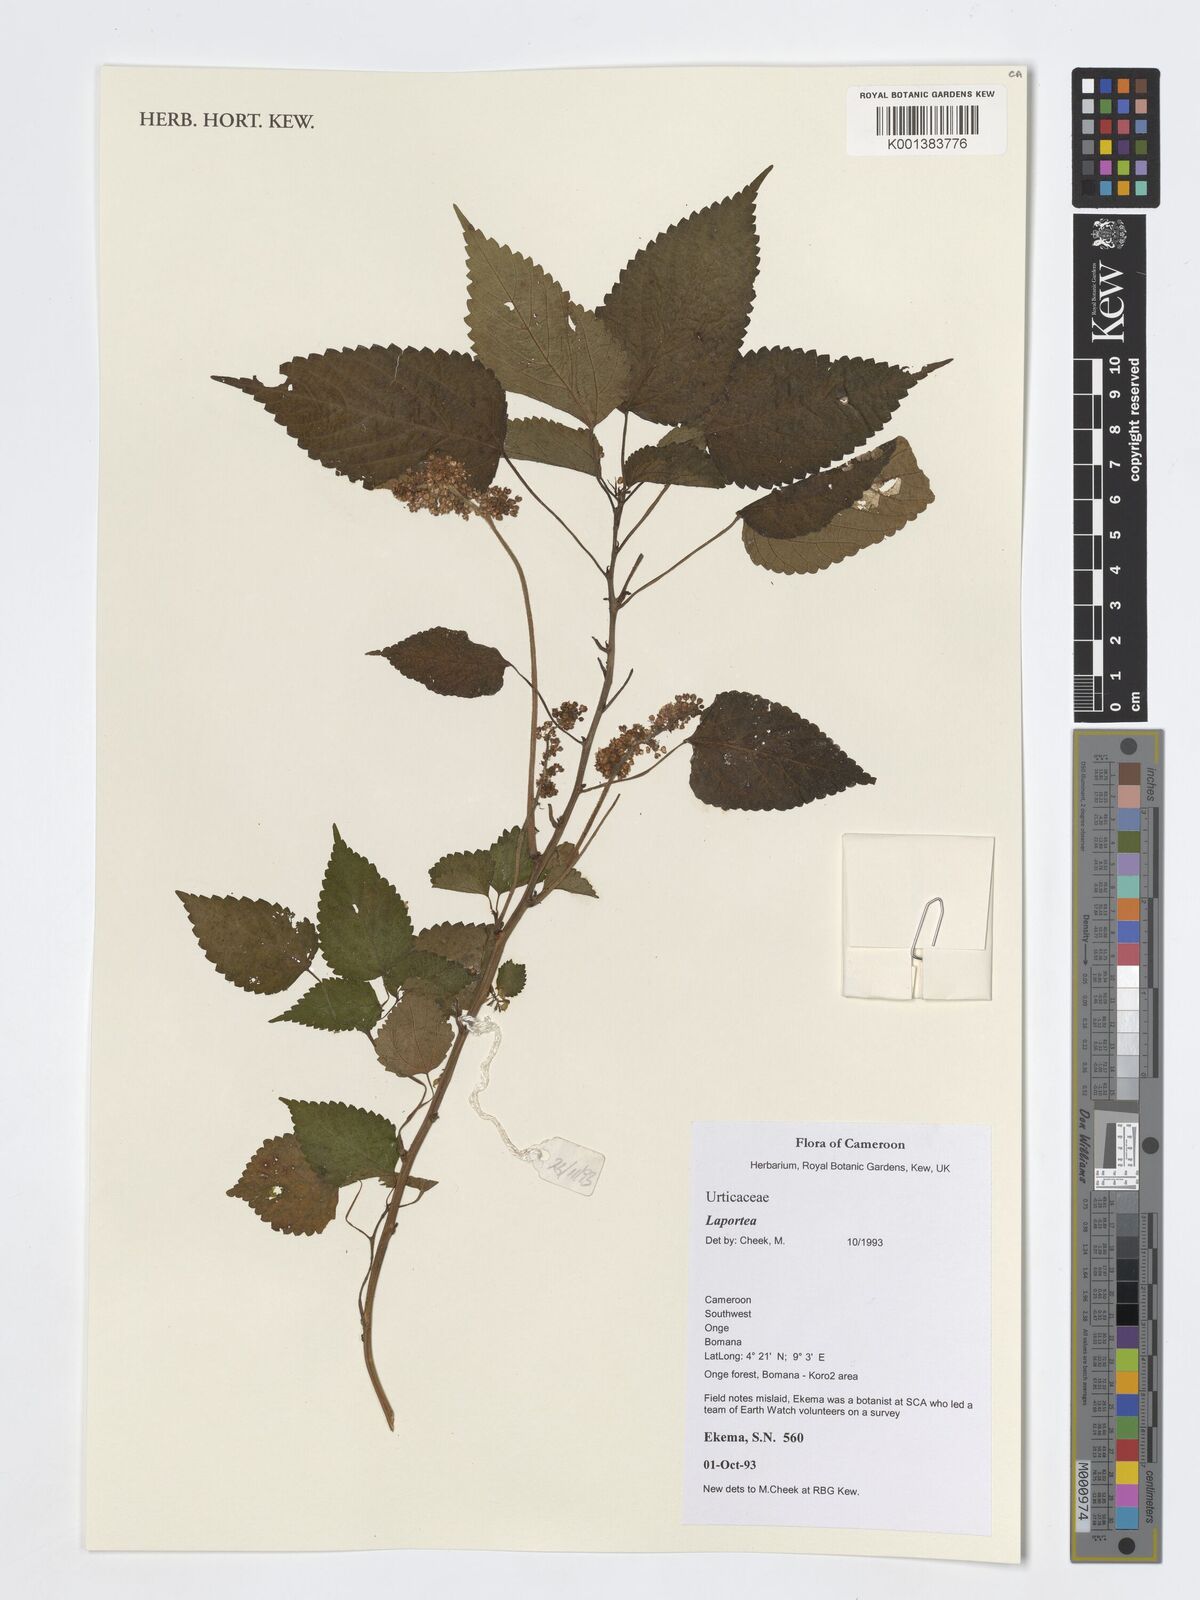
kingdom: Plantae
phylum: Tracheophyta
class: Magnoliopsida
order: Rosales
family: Urticaceae
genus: Laportea
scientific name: Laportea
